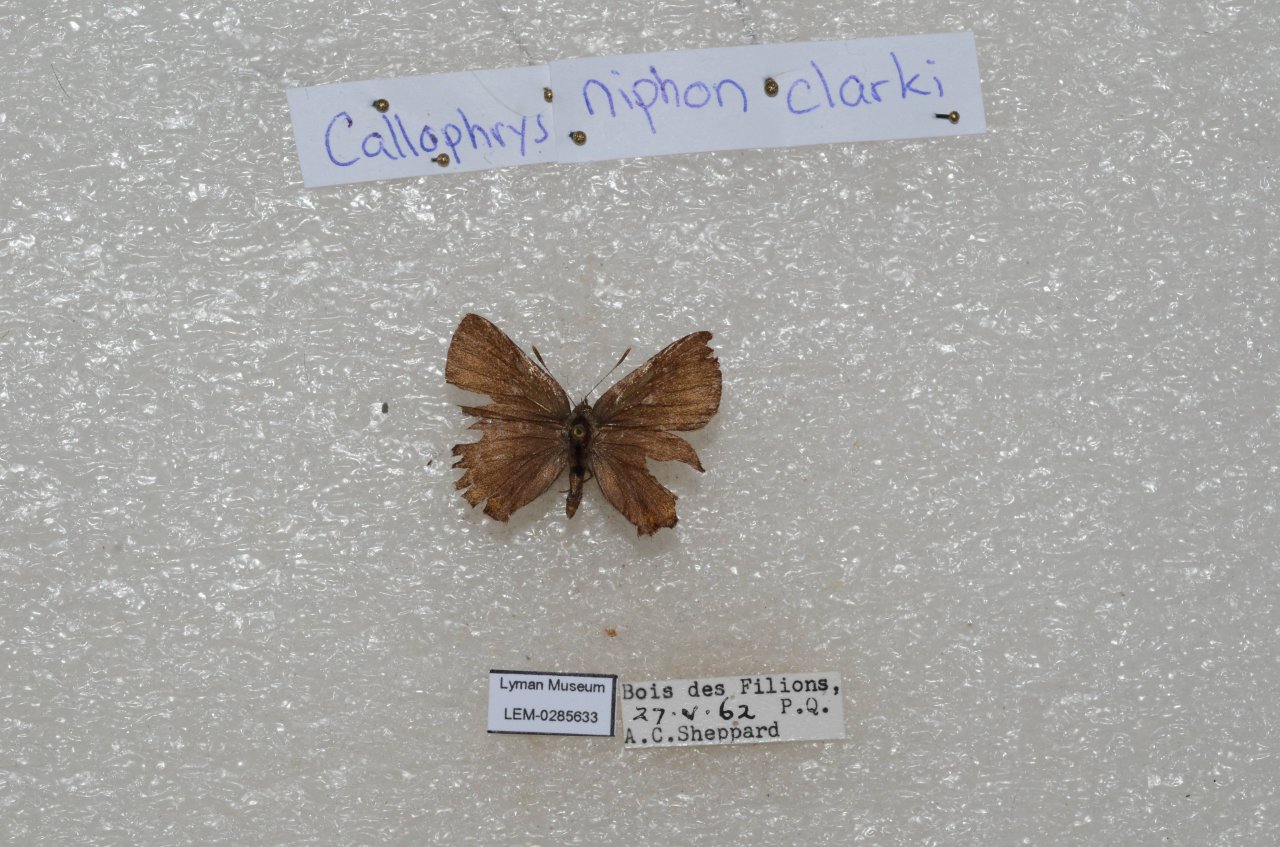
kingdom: Animalia
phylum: Arthropoda
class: Insecta
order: Lepidoptera
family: Lycaenidae
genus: Incisalia
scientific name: Incisalia niphon
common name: Eastern Pine Elfin
